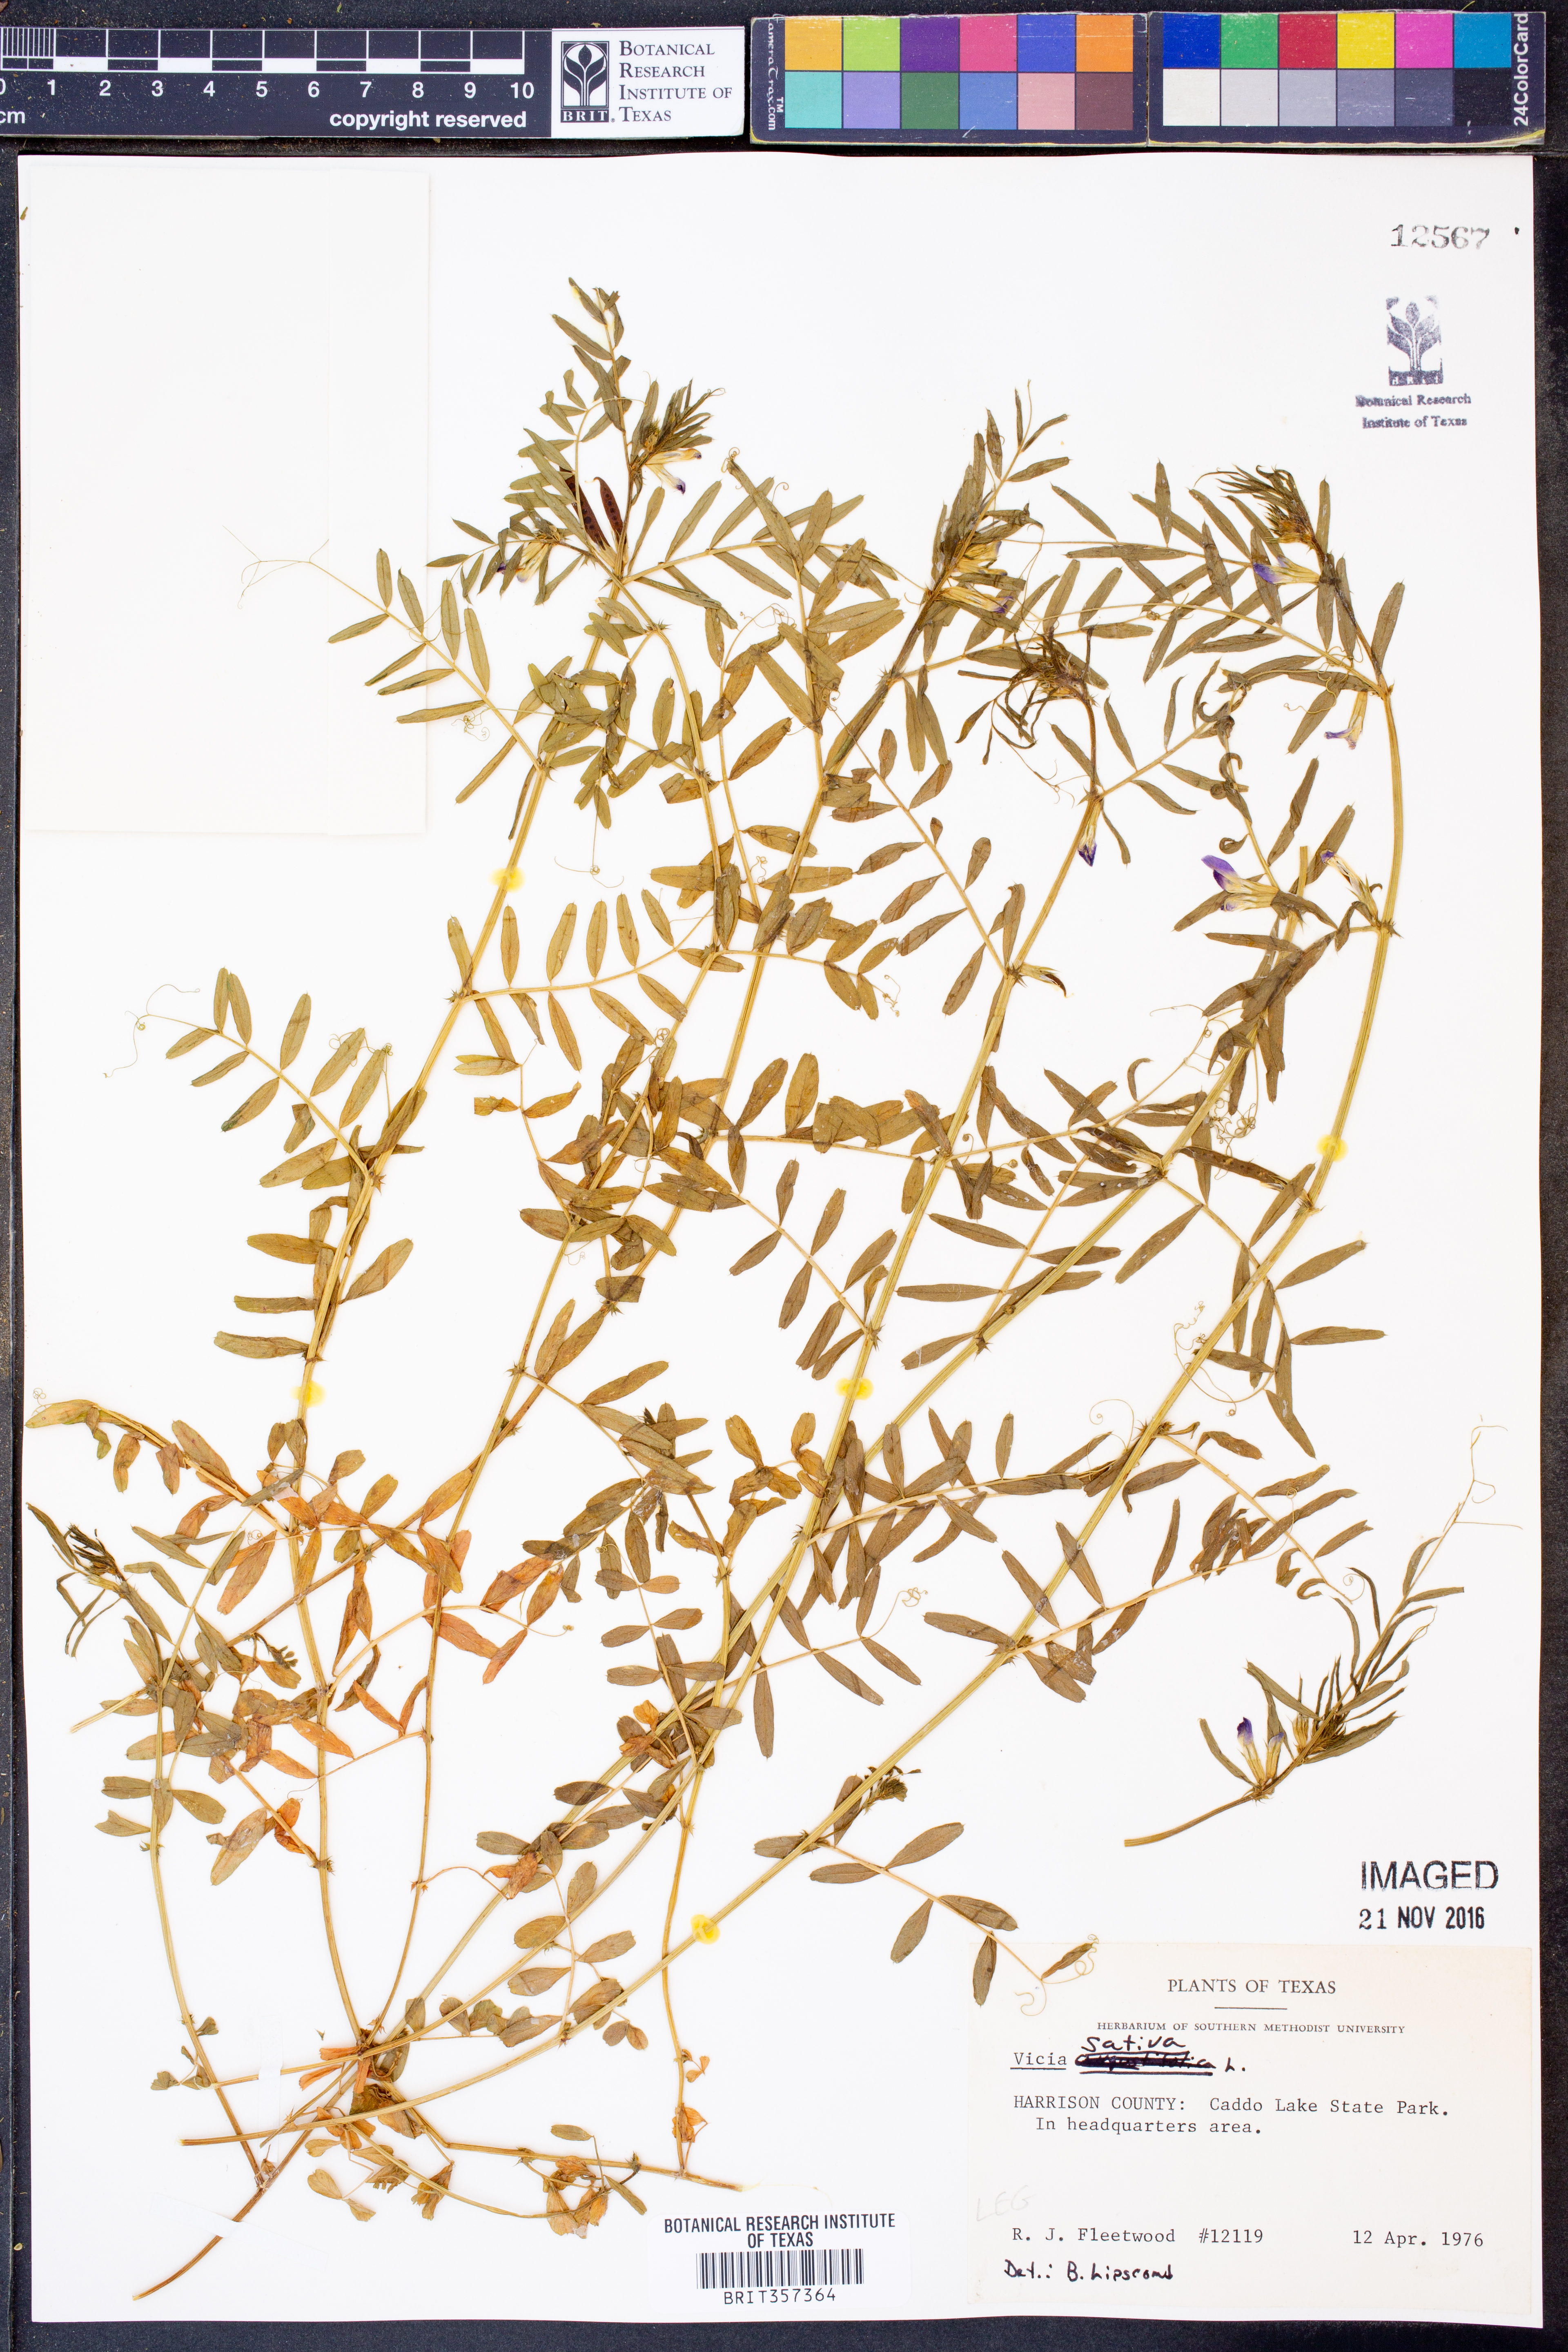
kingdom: Plantae
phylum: Tracheophyta
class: Magnoliopsida
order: Fabales
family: Fabaceae
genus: Vicia
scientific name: Vicia sativa
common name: Garden vetch
